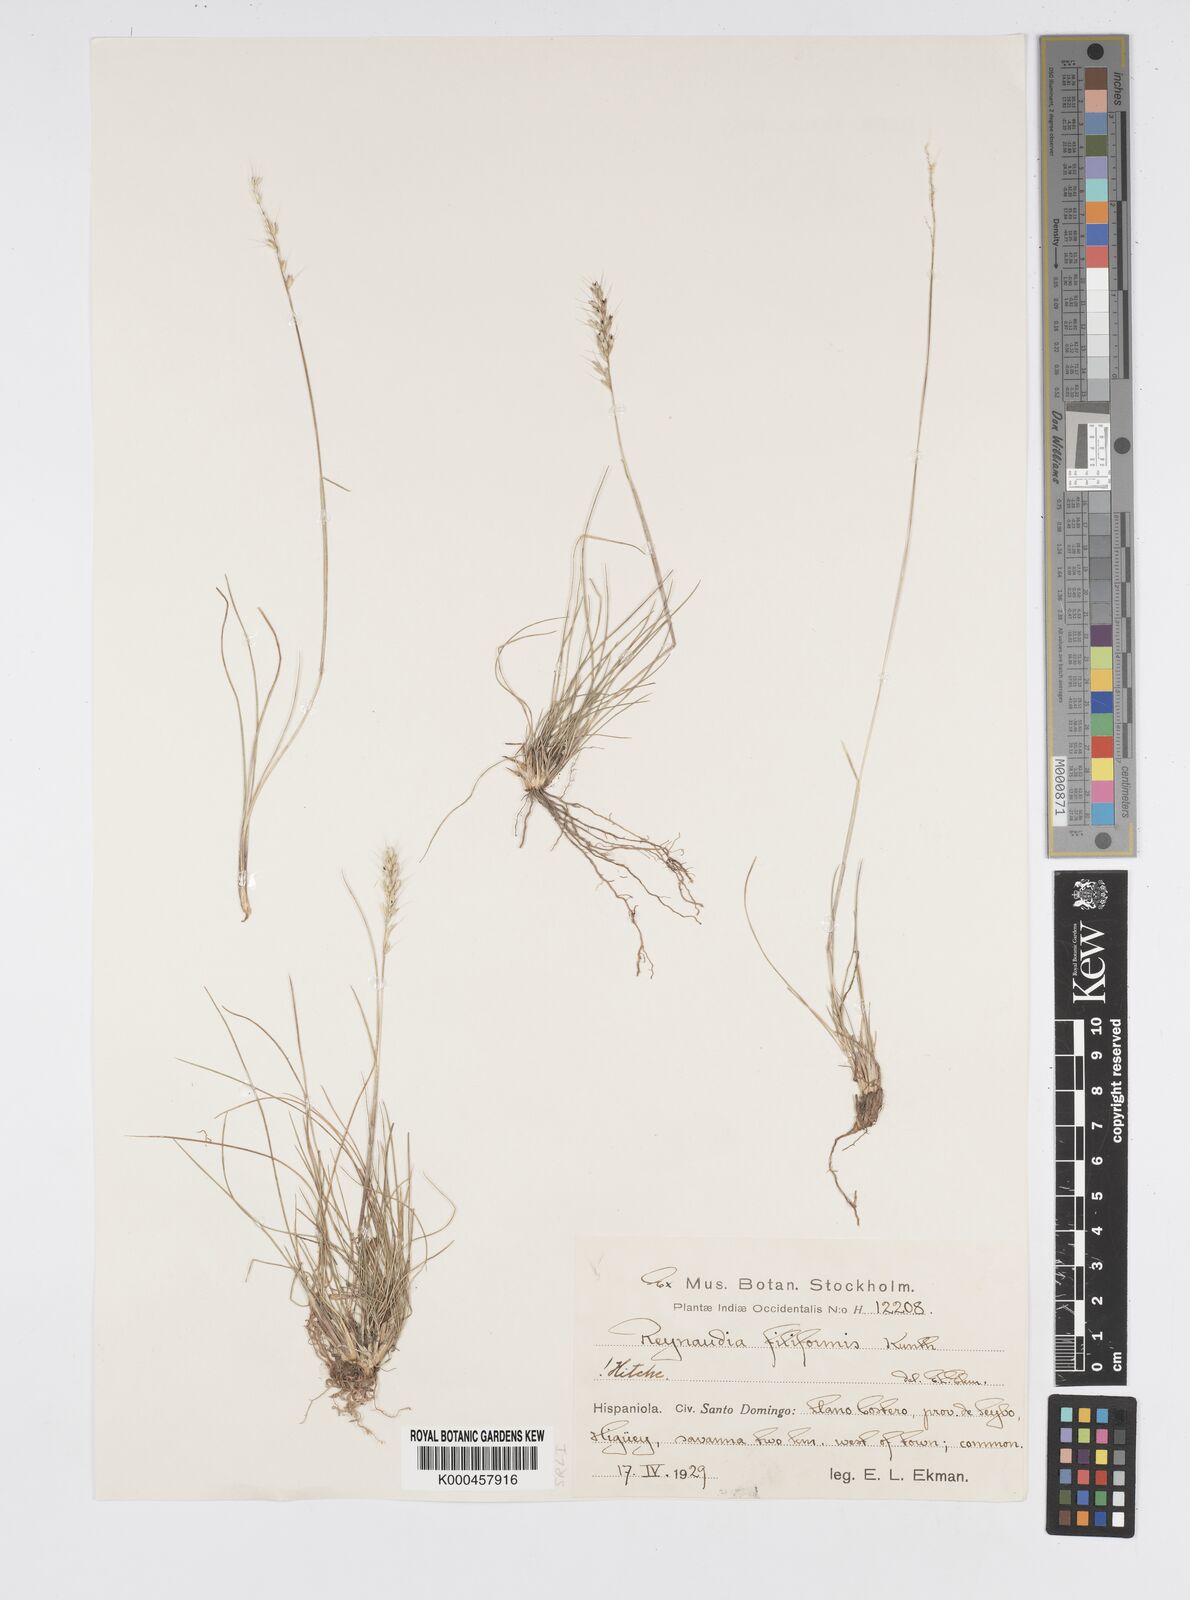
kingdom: Plantae
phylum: Tracheophyta
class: Liliopsida
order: Poales
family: Poaceae
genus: Reynaudia
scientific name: Reynaudia filiformis
